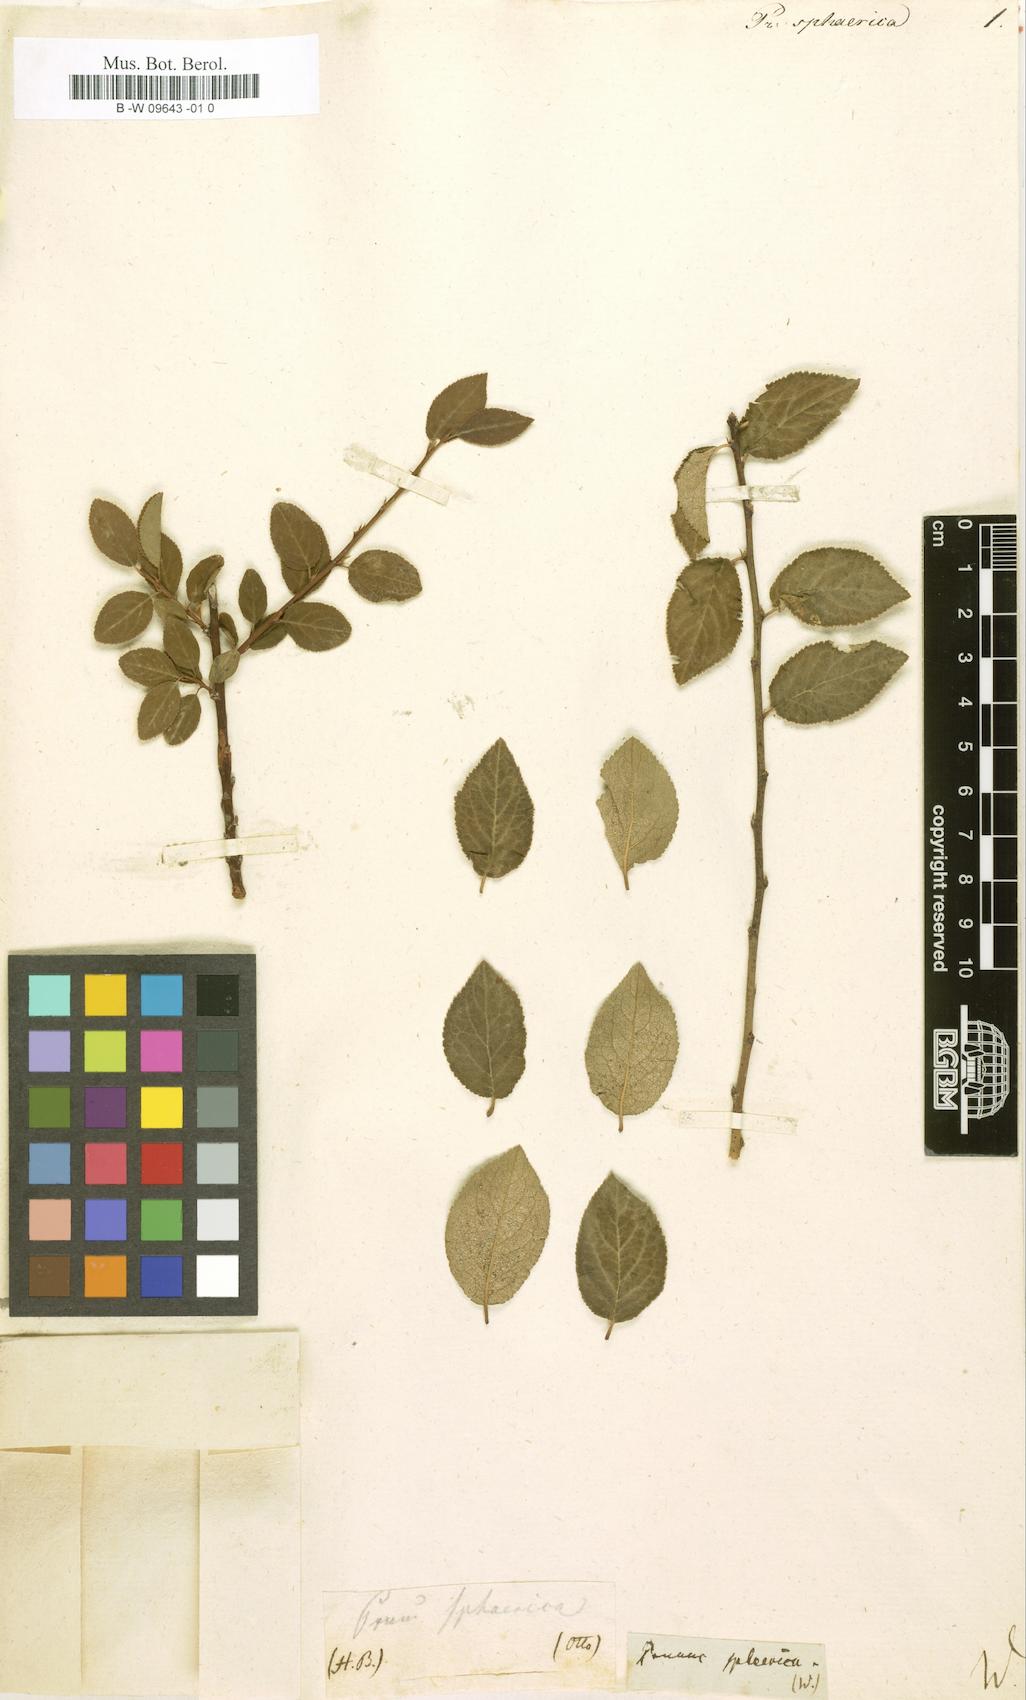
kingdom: Plantae
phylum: Tracheophyta
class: Magnoliopsida
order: Rosales
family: Rosaceae
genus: Prunus
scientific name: Prunus maritima
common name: Beach plum
